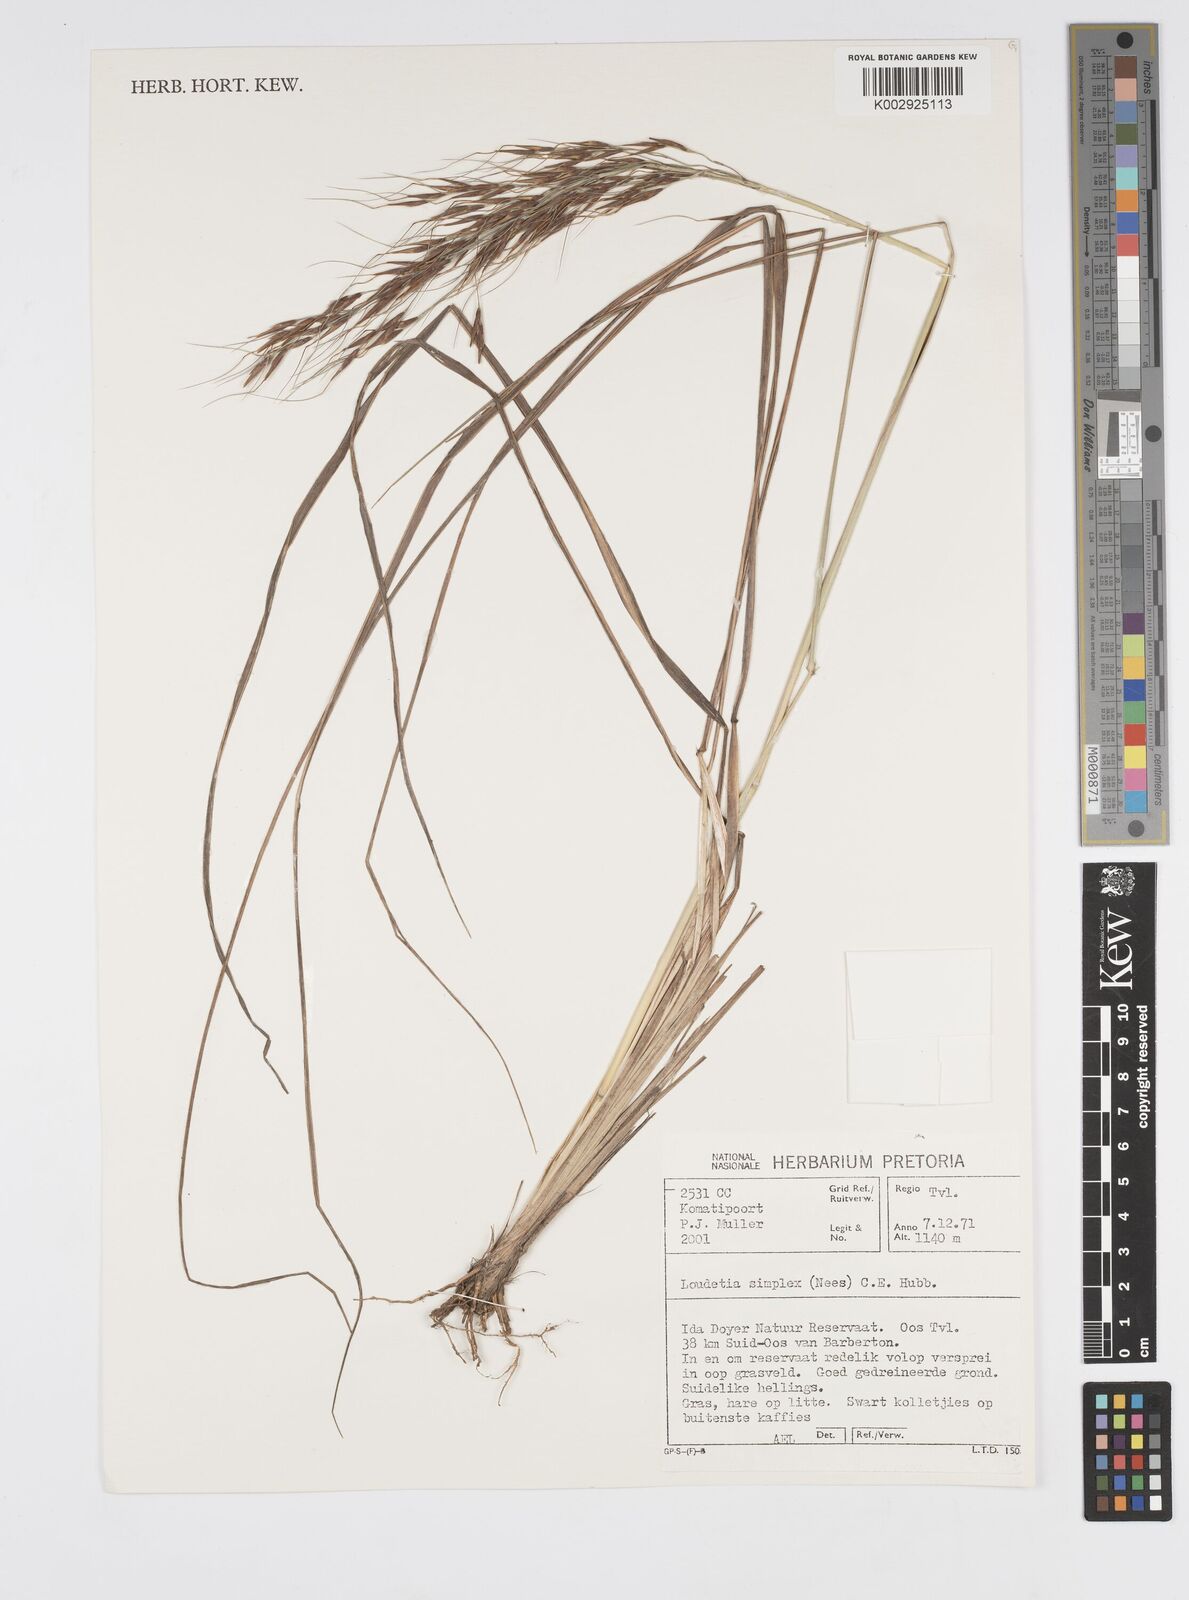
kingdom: Plantae
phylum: Tracheophyta
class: Liliopsida
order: Poales
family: Poaceae
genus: Loudetia
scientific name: Loudetia simplex
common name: Common russet grass
